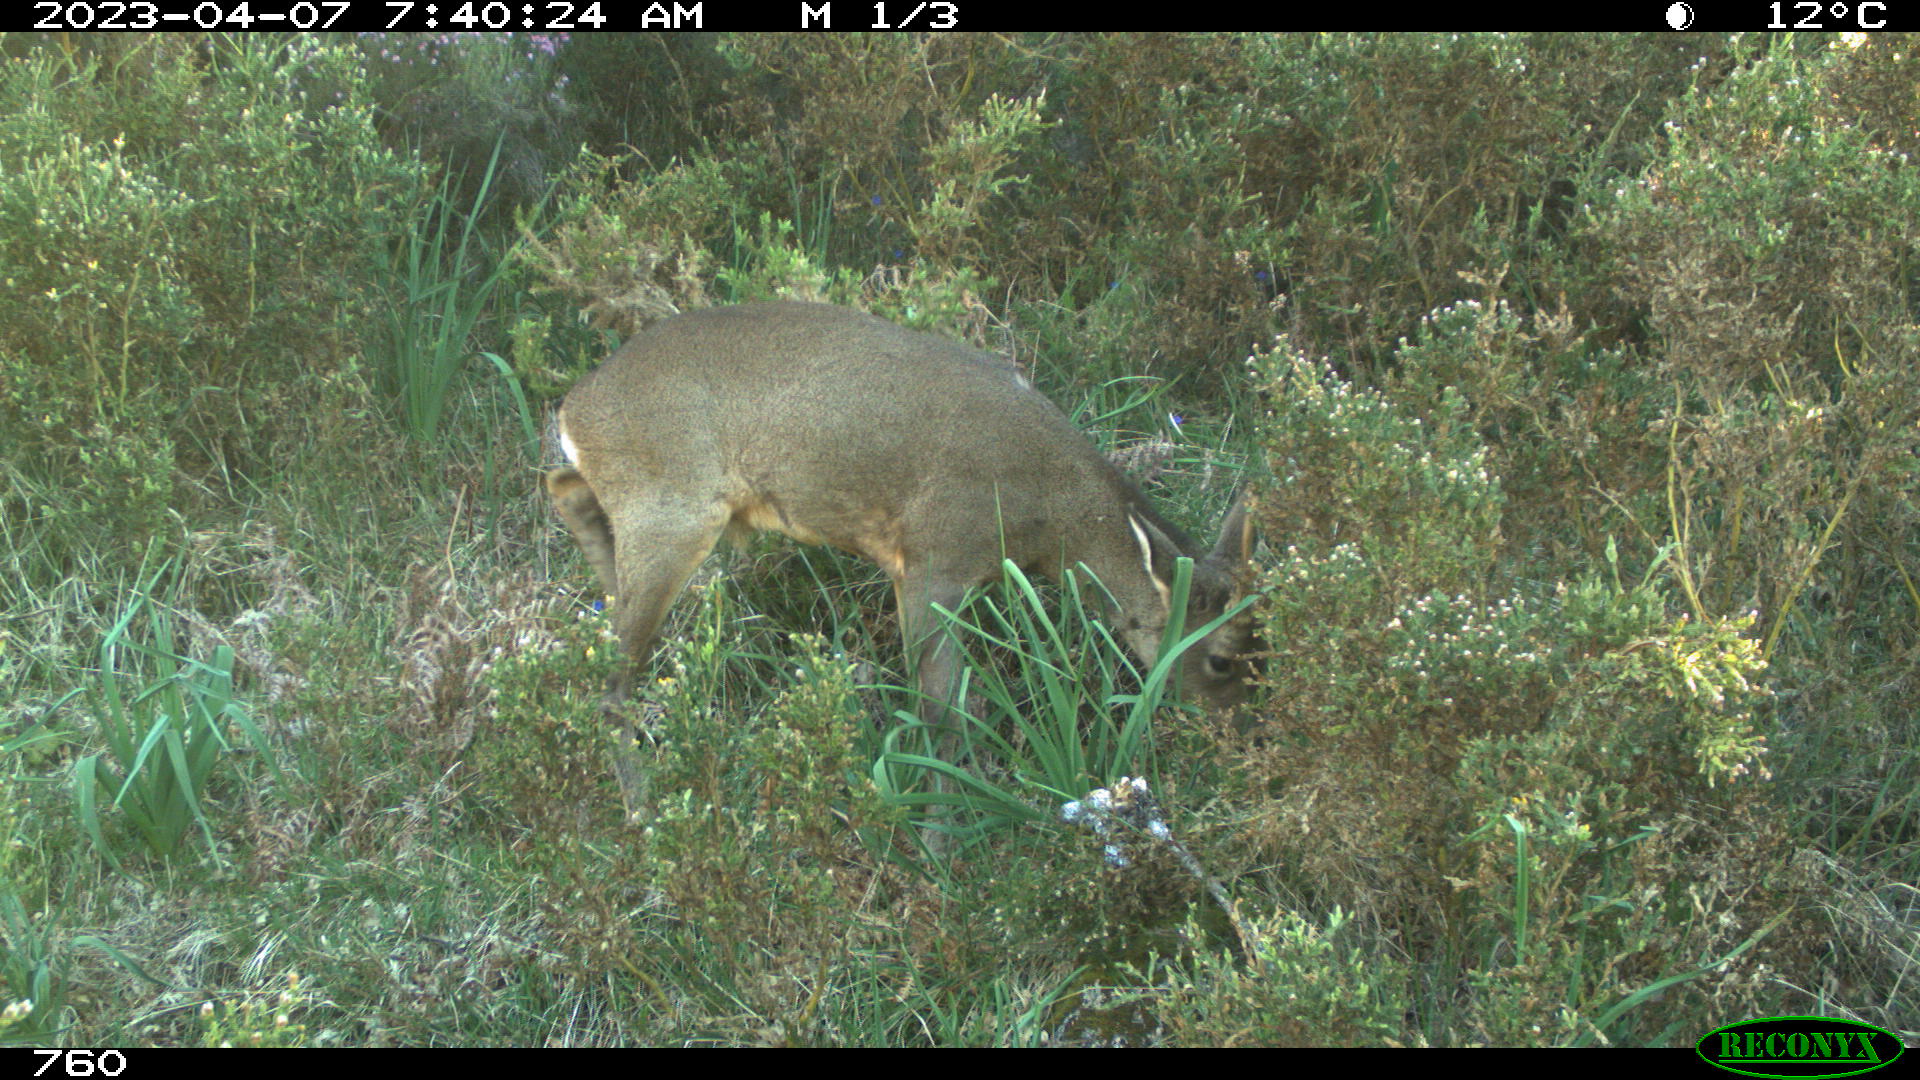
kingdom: Animalia
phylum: Chordata
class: Mammalia
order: Artiodactyla
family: Cervidae
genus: Capreolus
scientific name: Capreolus capreolus
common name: Western roe deer
